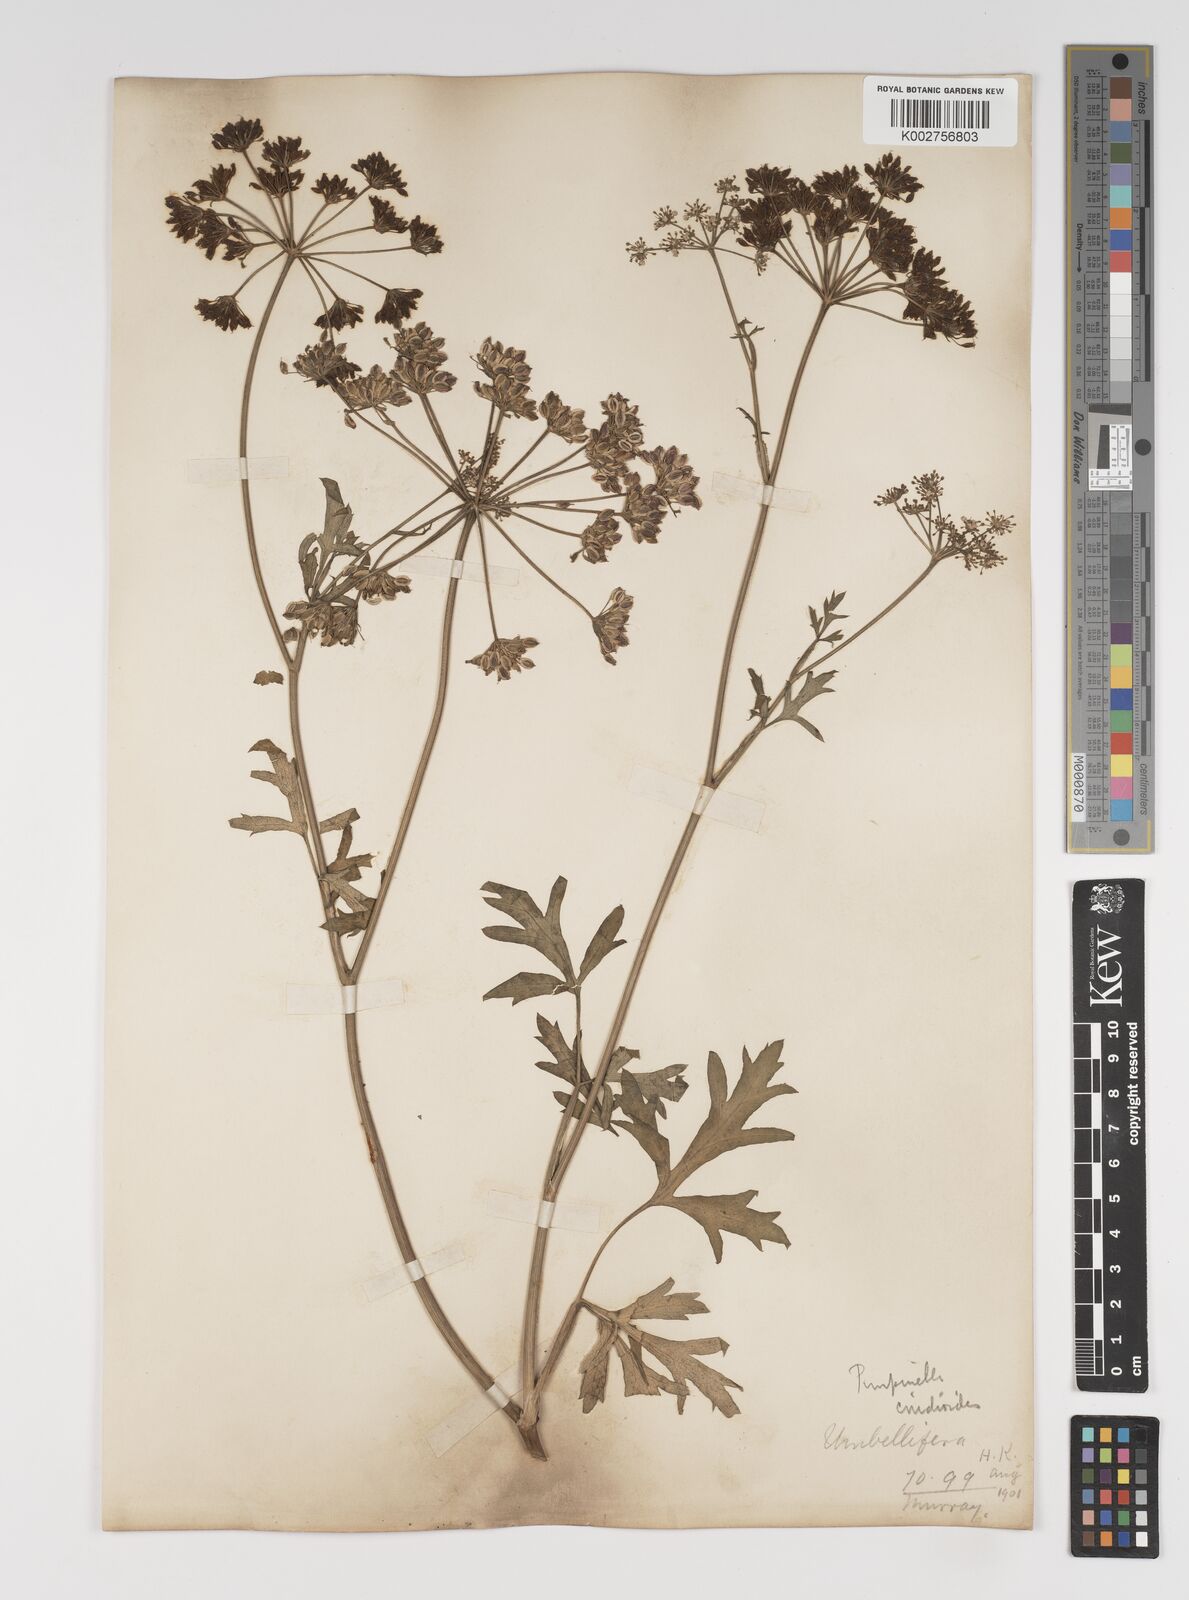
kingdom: Plantae
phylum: Tracheophyta
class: Magnoliopsida
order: Apiales
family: Apiaceae
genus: Pimpinella
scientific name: Pimpinella major
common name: Greater burnet-saxifrage
